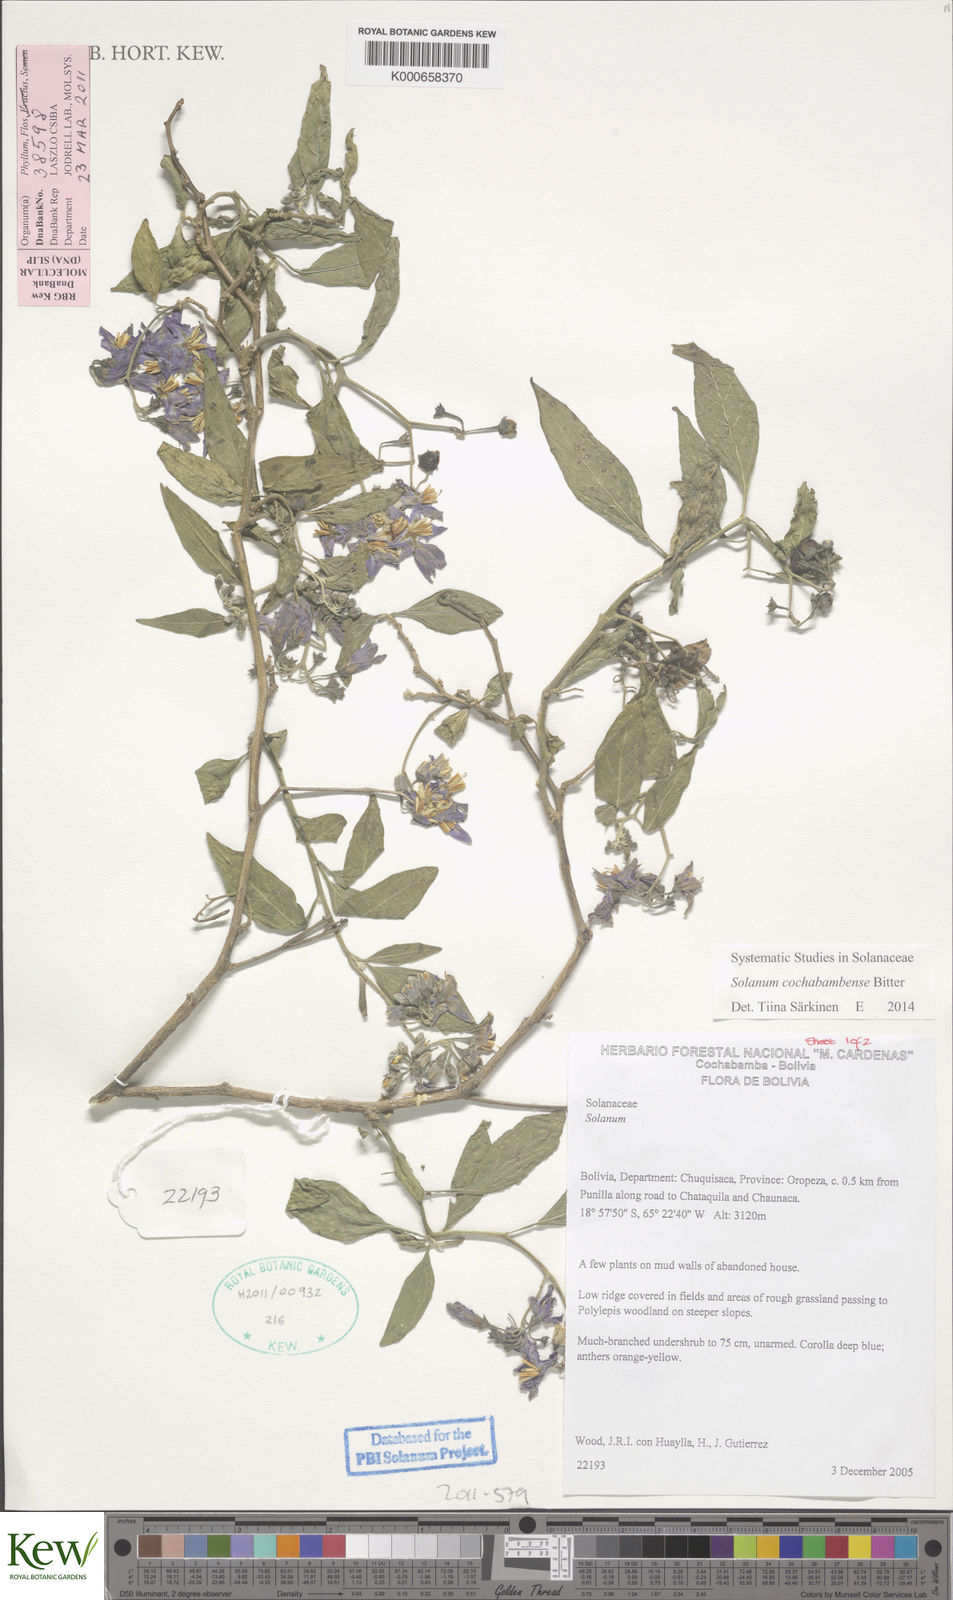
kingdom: Plantae
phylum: Tracheophyta
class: Magnoliopsida
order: Solanales
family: Solanaceae
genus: Solanum
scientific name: Solanum aloysiifolium
